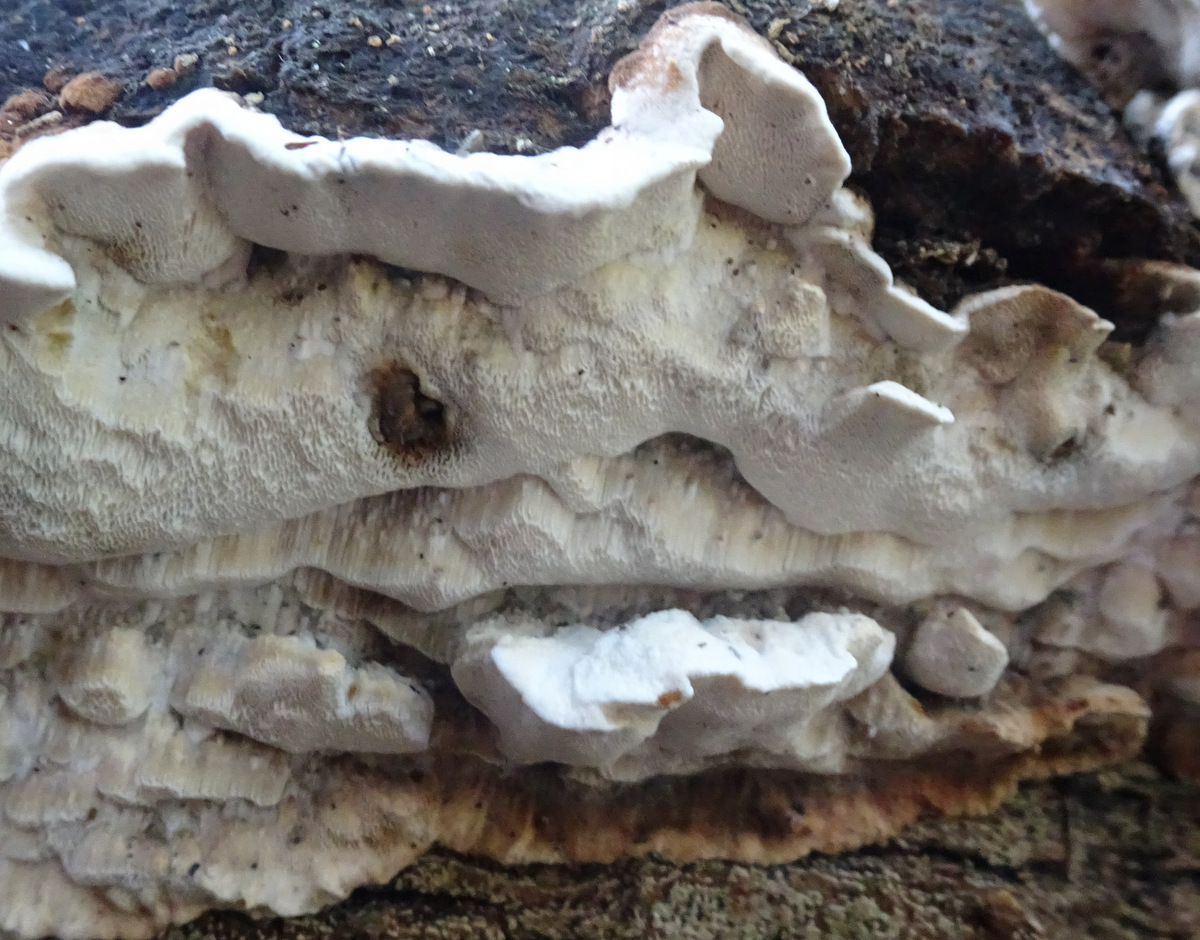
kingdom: Fungi
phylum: Basidiomycota
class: Agaricomycetes
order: Polyporales
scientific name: Polyporales
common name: poresvampordenen
